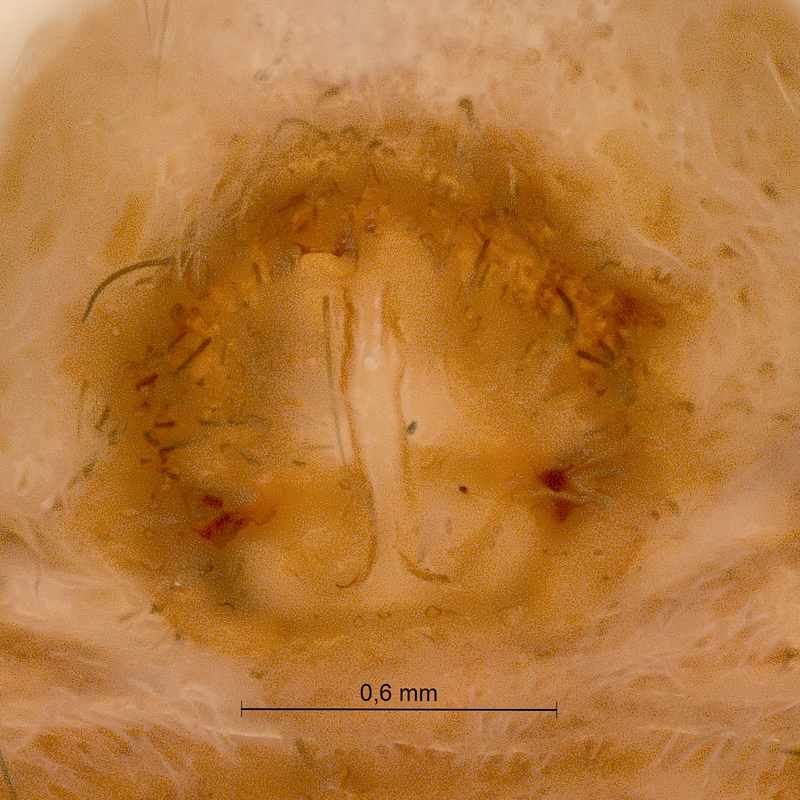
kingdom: Animalia
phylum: Arthropoda
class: Arachnida
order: Araneae
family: Lycosidae
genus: Pardosa
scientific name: Pardosa lugubris
